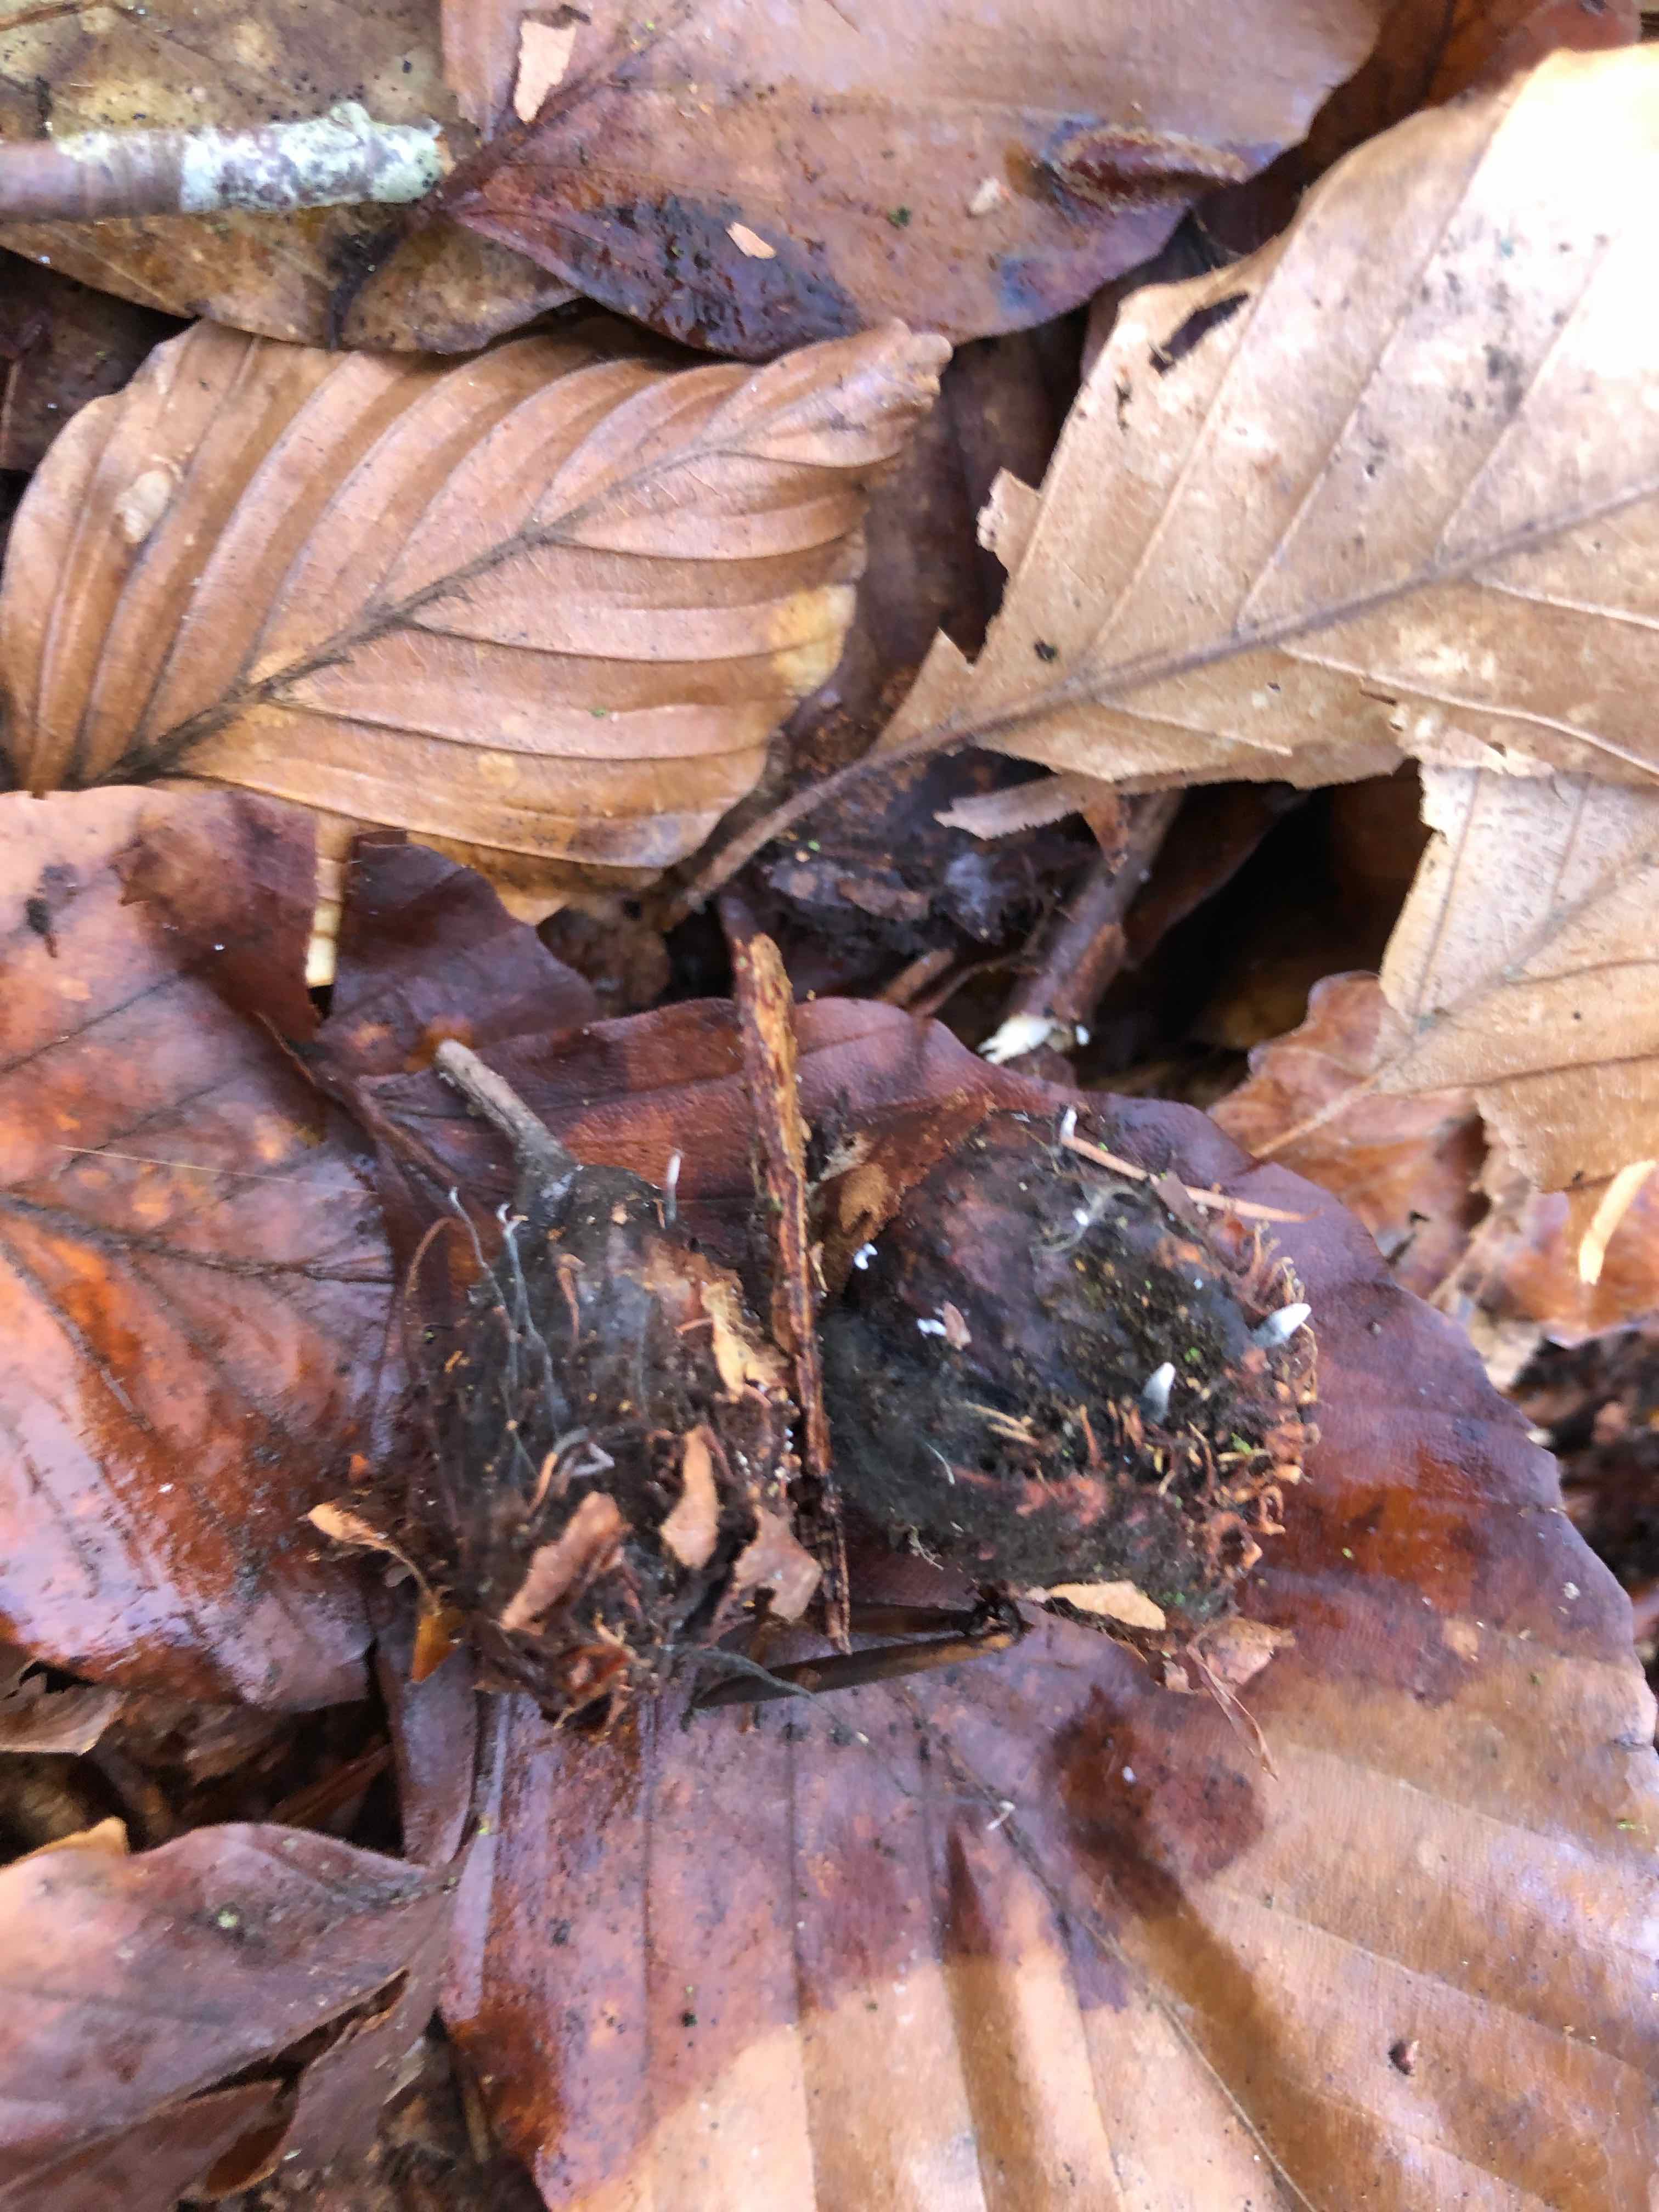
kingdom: Fungi
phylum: Ascomycota
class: Sordariomycetes
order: Xylariales
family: Xylariaceae
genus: Xylaria
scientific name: Xylaria carpophila
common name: bogskål-stødsvamp
